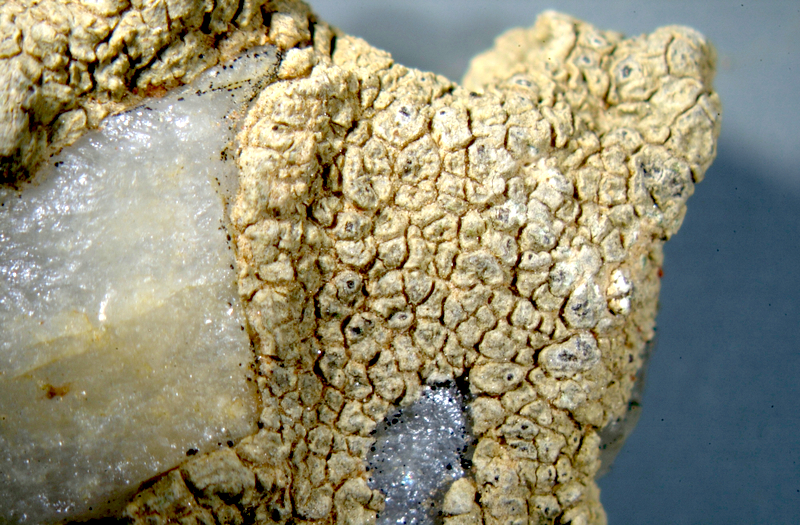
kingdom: Fungi
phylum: Ascomycota
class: Lecanoromycetes
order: Ostropales
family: Graphidaceae
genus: Diploschistes
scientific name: Diploschistes
